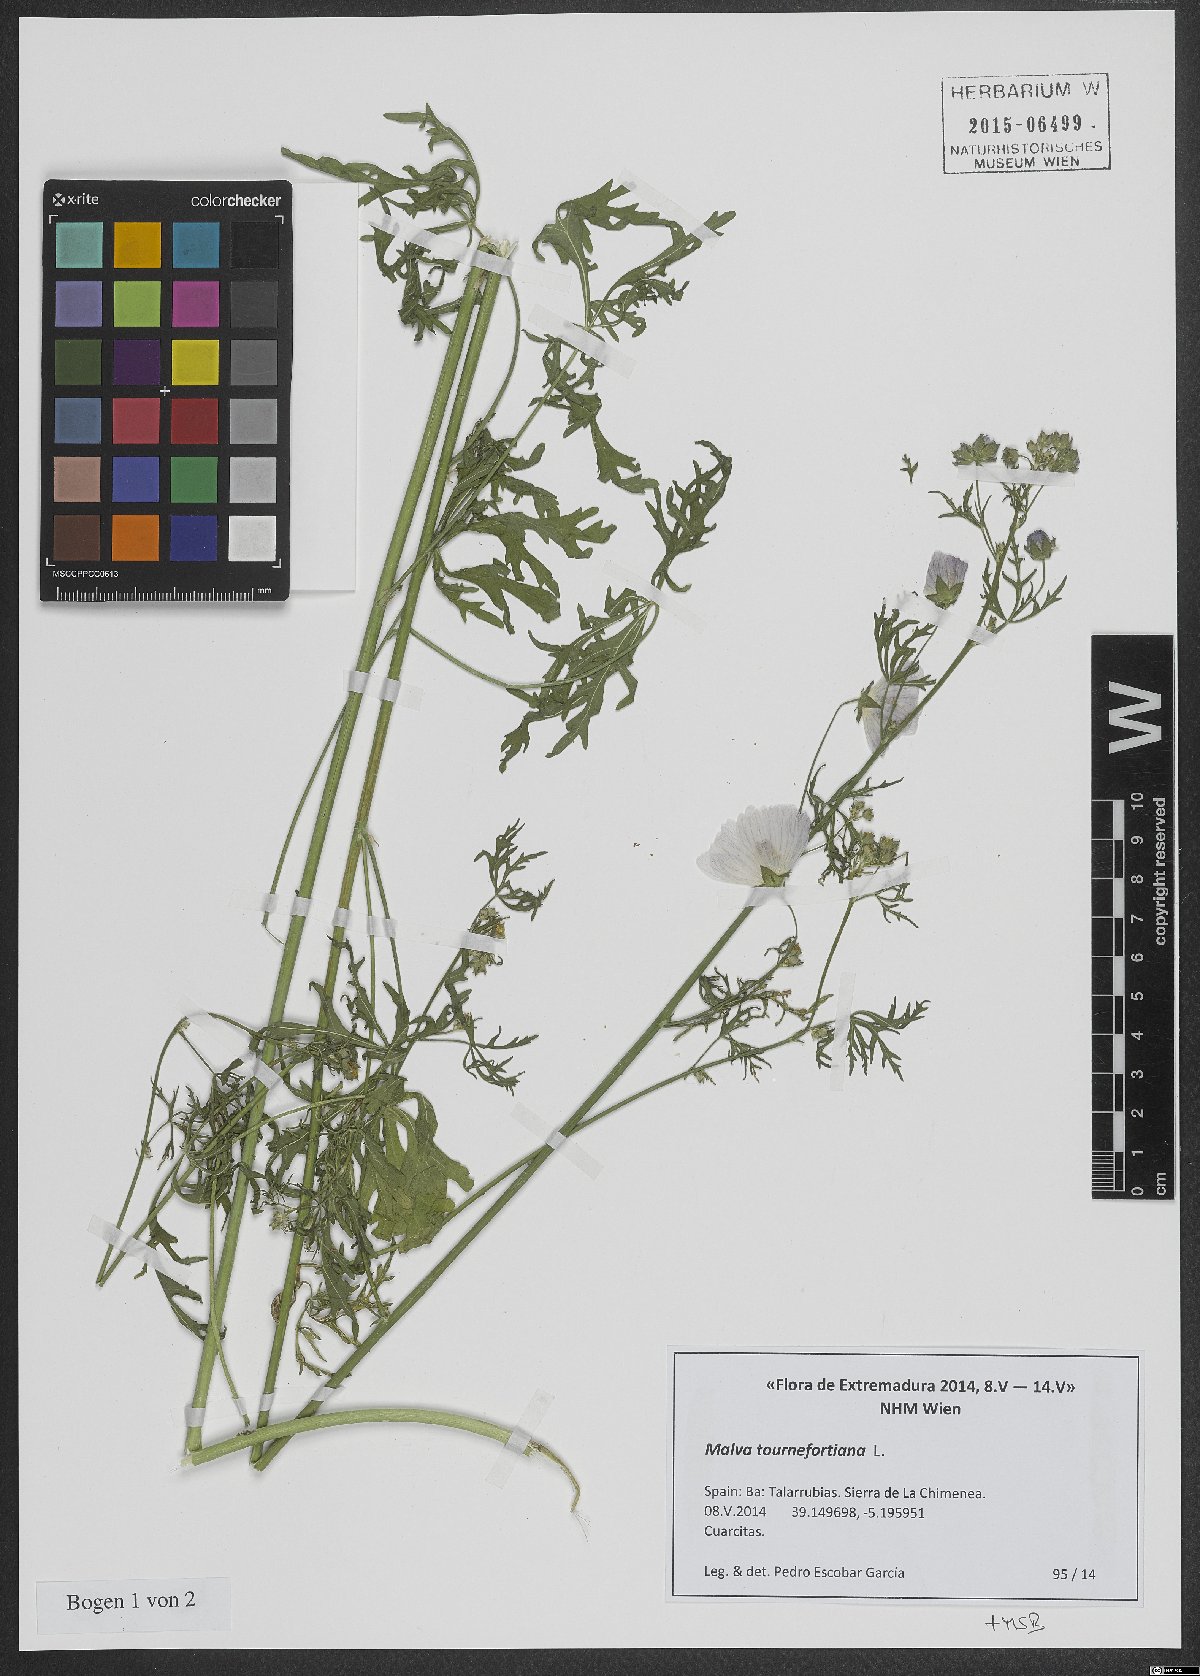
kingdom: Plantae
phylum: Tracheophyta
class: Magnoliopsida
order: Malvales
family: Malvaceae
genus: Malva
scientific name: Malva tournefortiana
